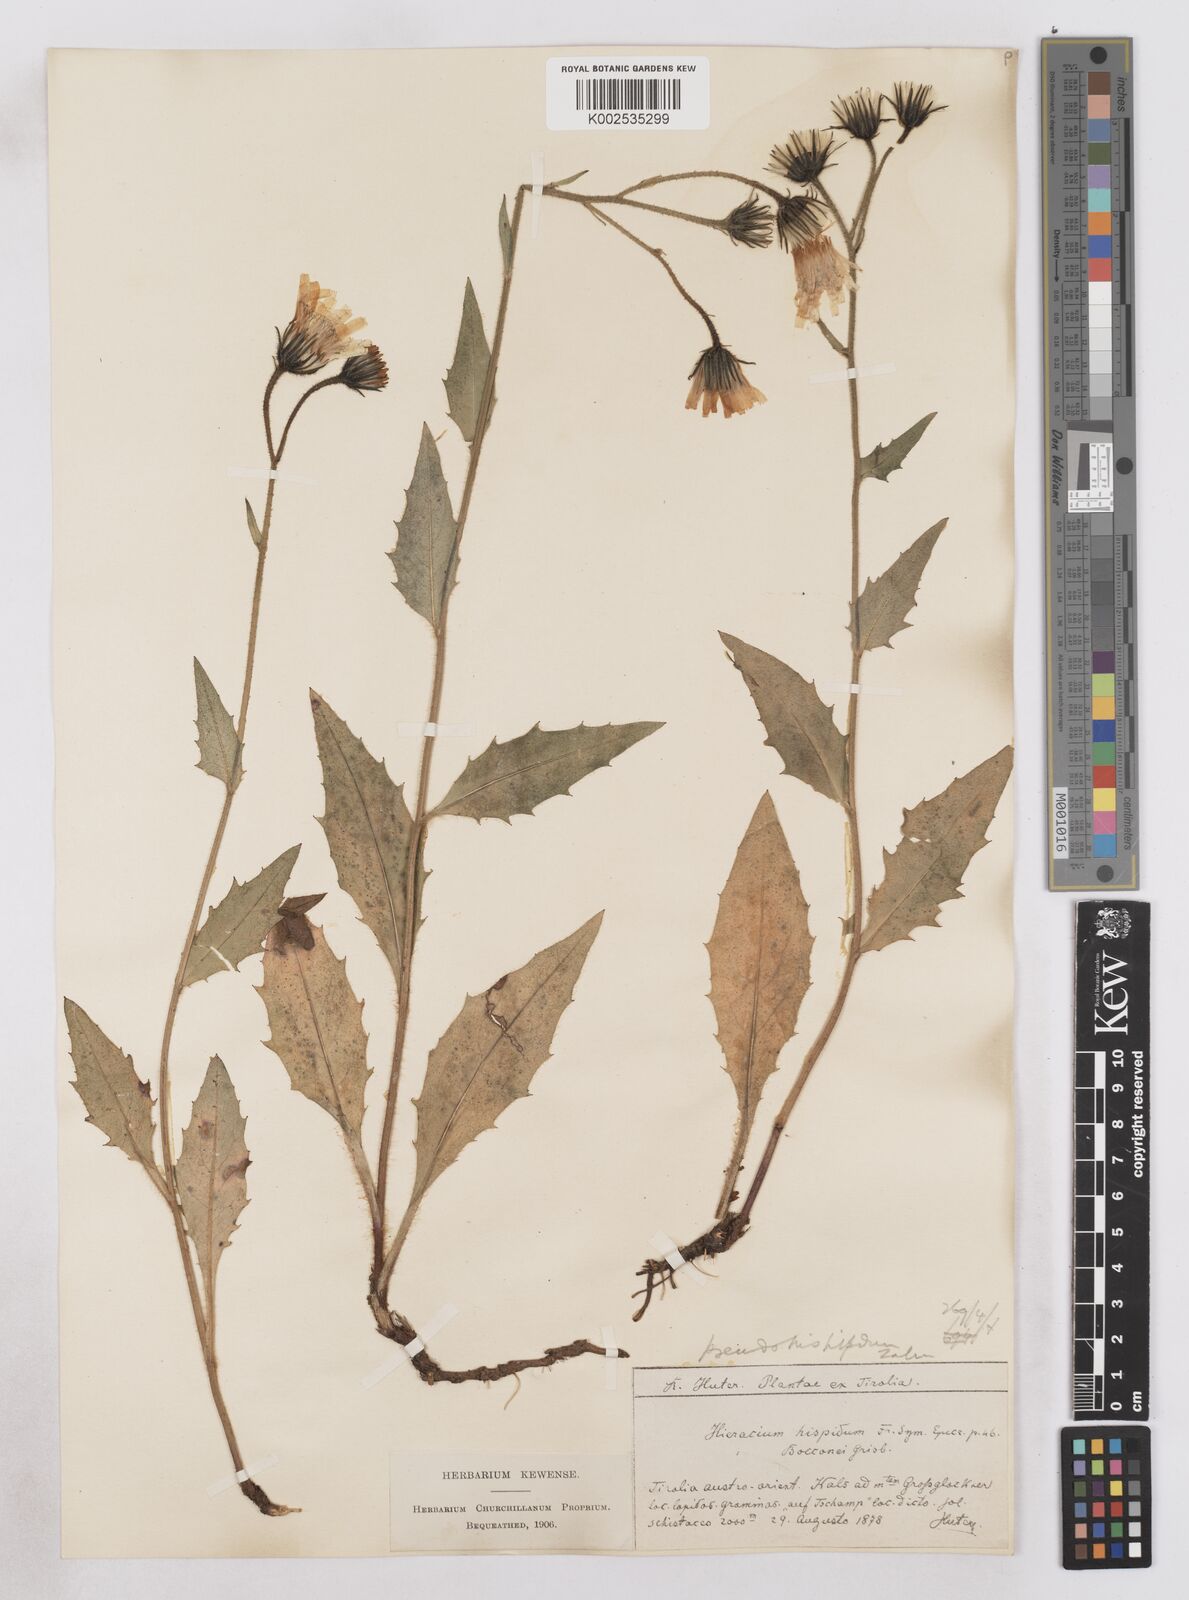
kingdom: Plantae
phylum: Tracheophyta
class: Magnoliopsida
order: Asterales
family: Asteraceae
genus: Hieracium
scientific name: Hieracium kuekenthalianum
